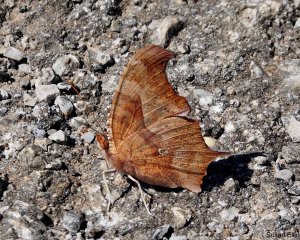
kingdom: Animalia
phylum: Arthropoda
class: Insecta
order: Lepidoptera
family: Nymphalidae
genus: Polygonia
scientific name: Polygonia interrogationis
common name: Question Mark
